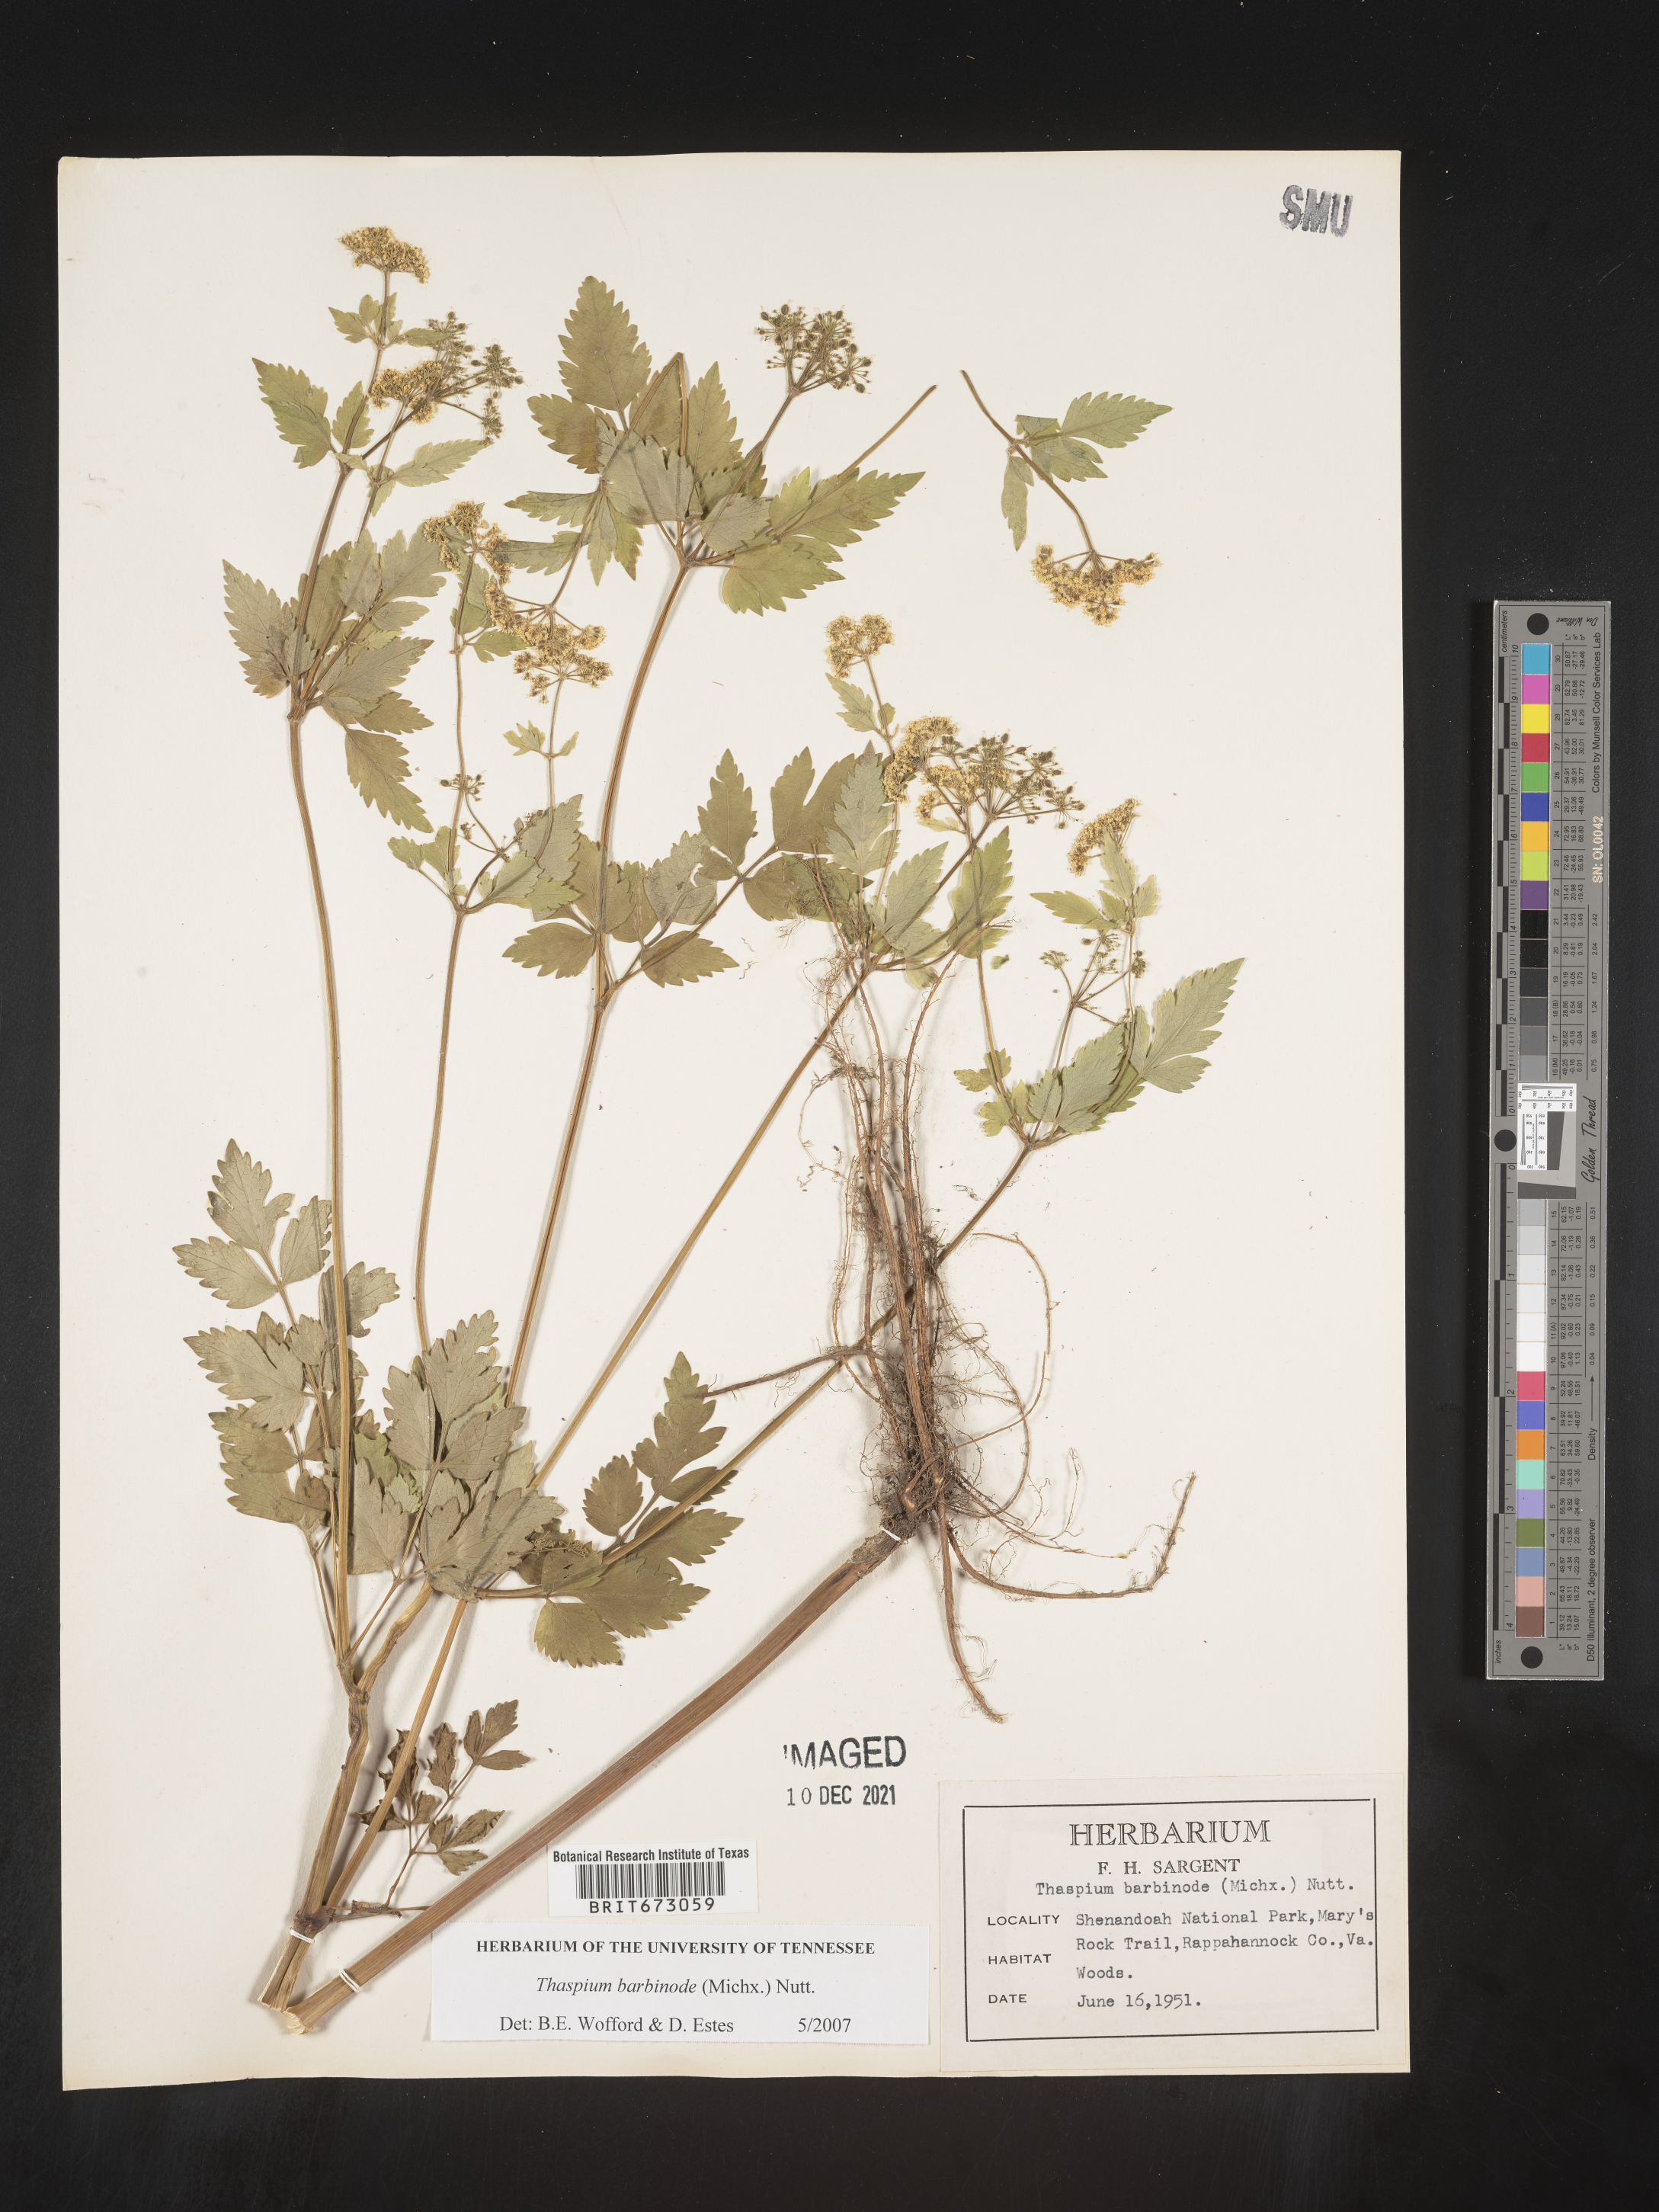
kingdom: Plantae
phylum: Tracheophyta
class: Magnoliopsida
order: Apiales
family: Apiaceae
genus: Thaspium
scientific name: Thaspium barbinode
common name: Bearded meadow-parsnip
